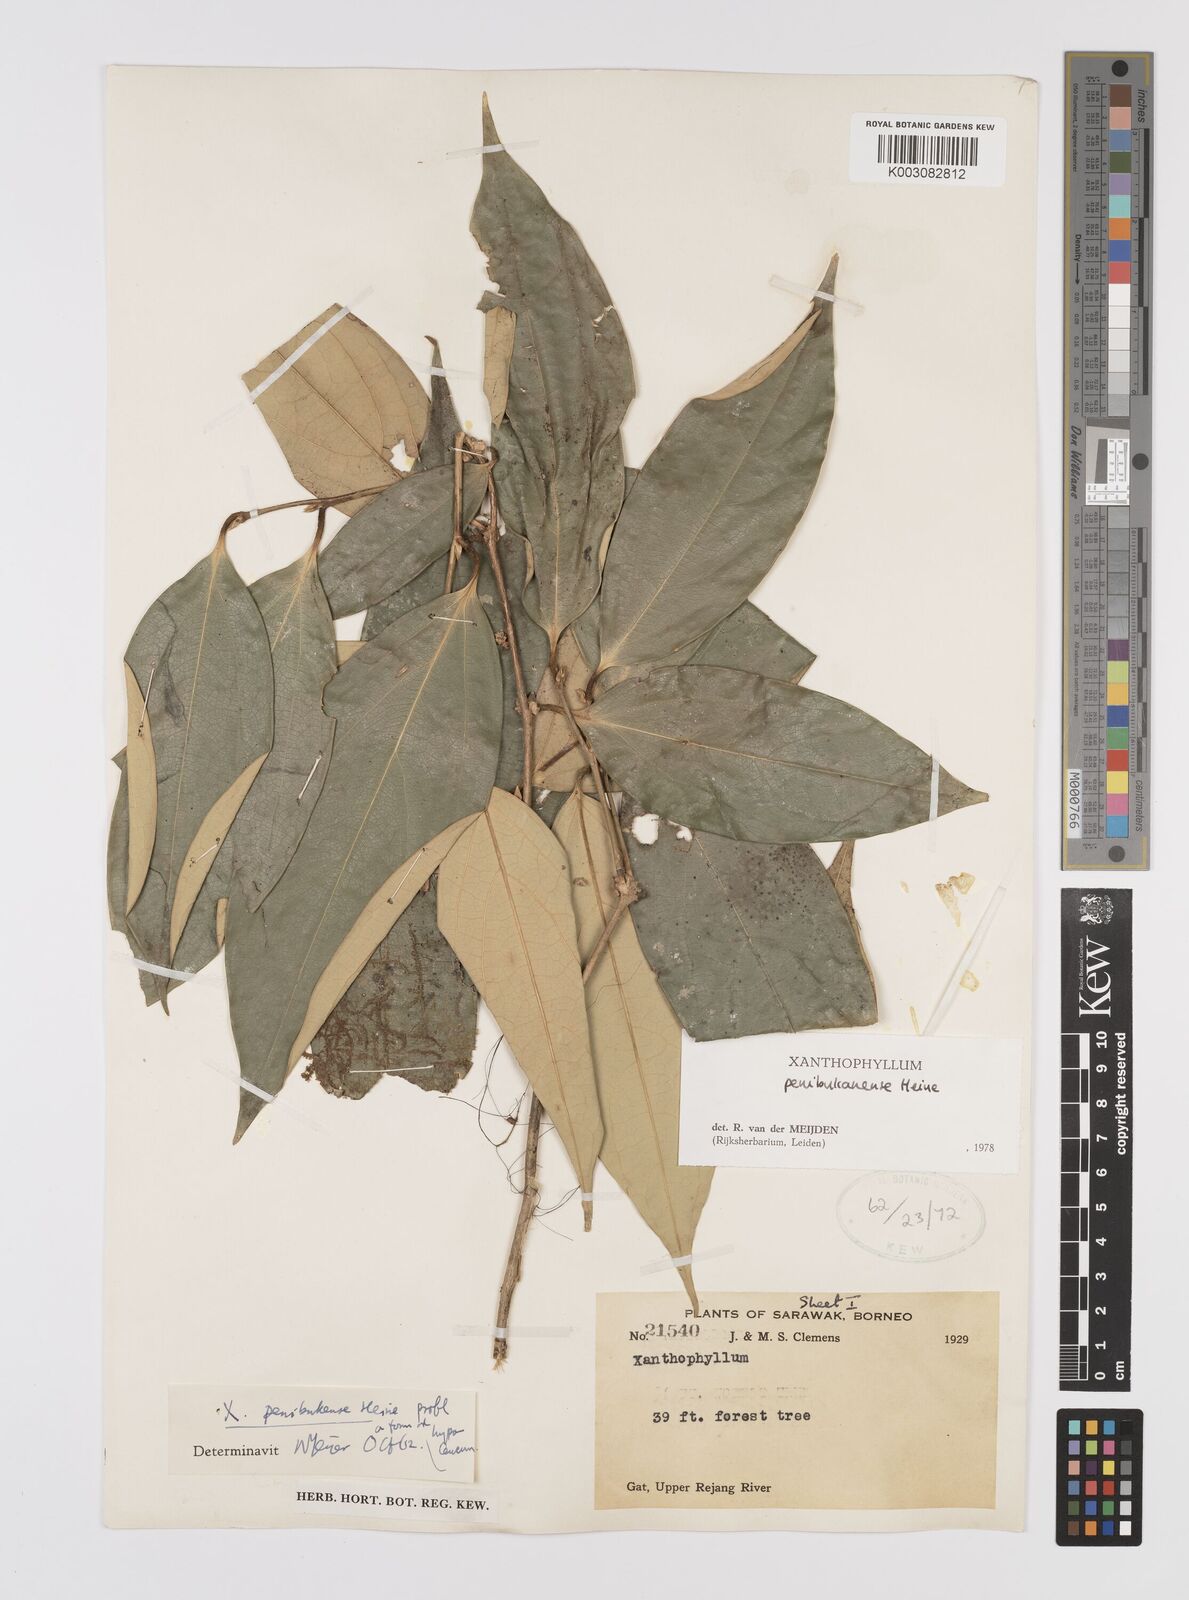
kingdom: Plantae
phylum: Tracheophyta
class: Magnoliopsida
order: Fabales
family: Polygalaceae
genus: Xanthophyllum
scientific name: Xanthophyllum penibukanense
